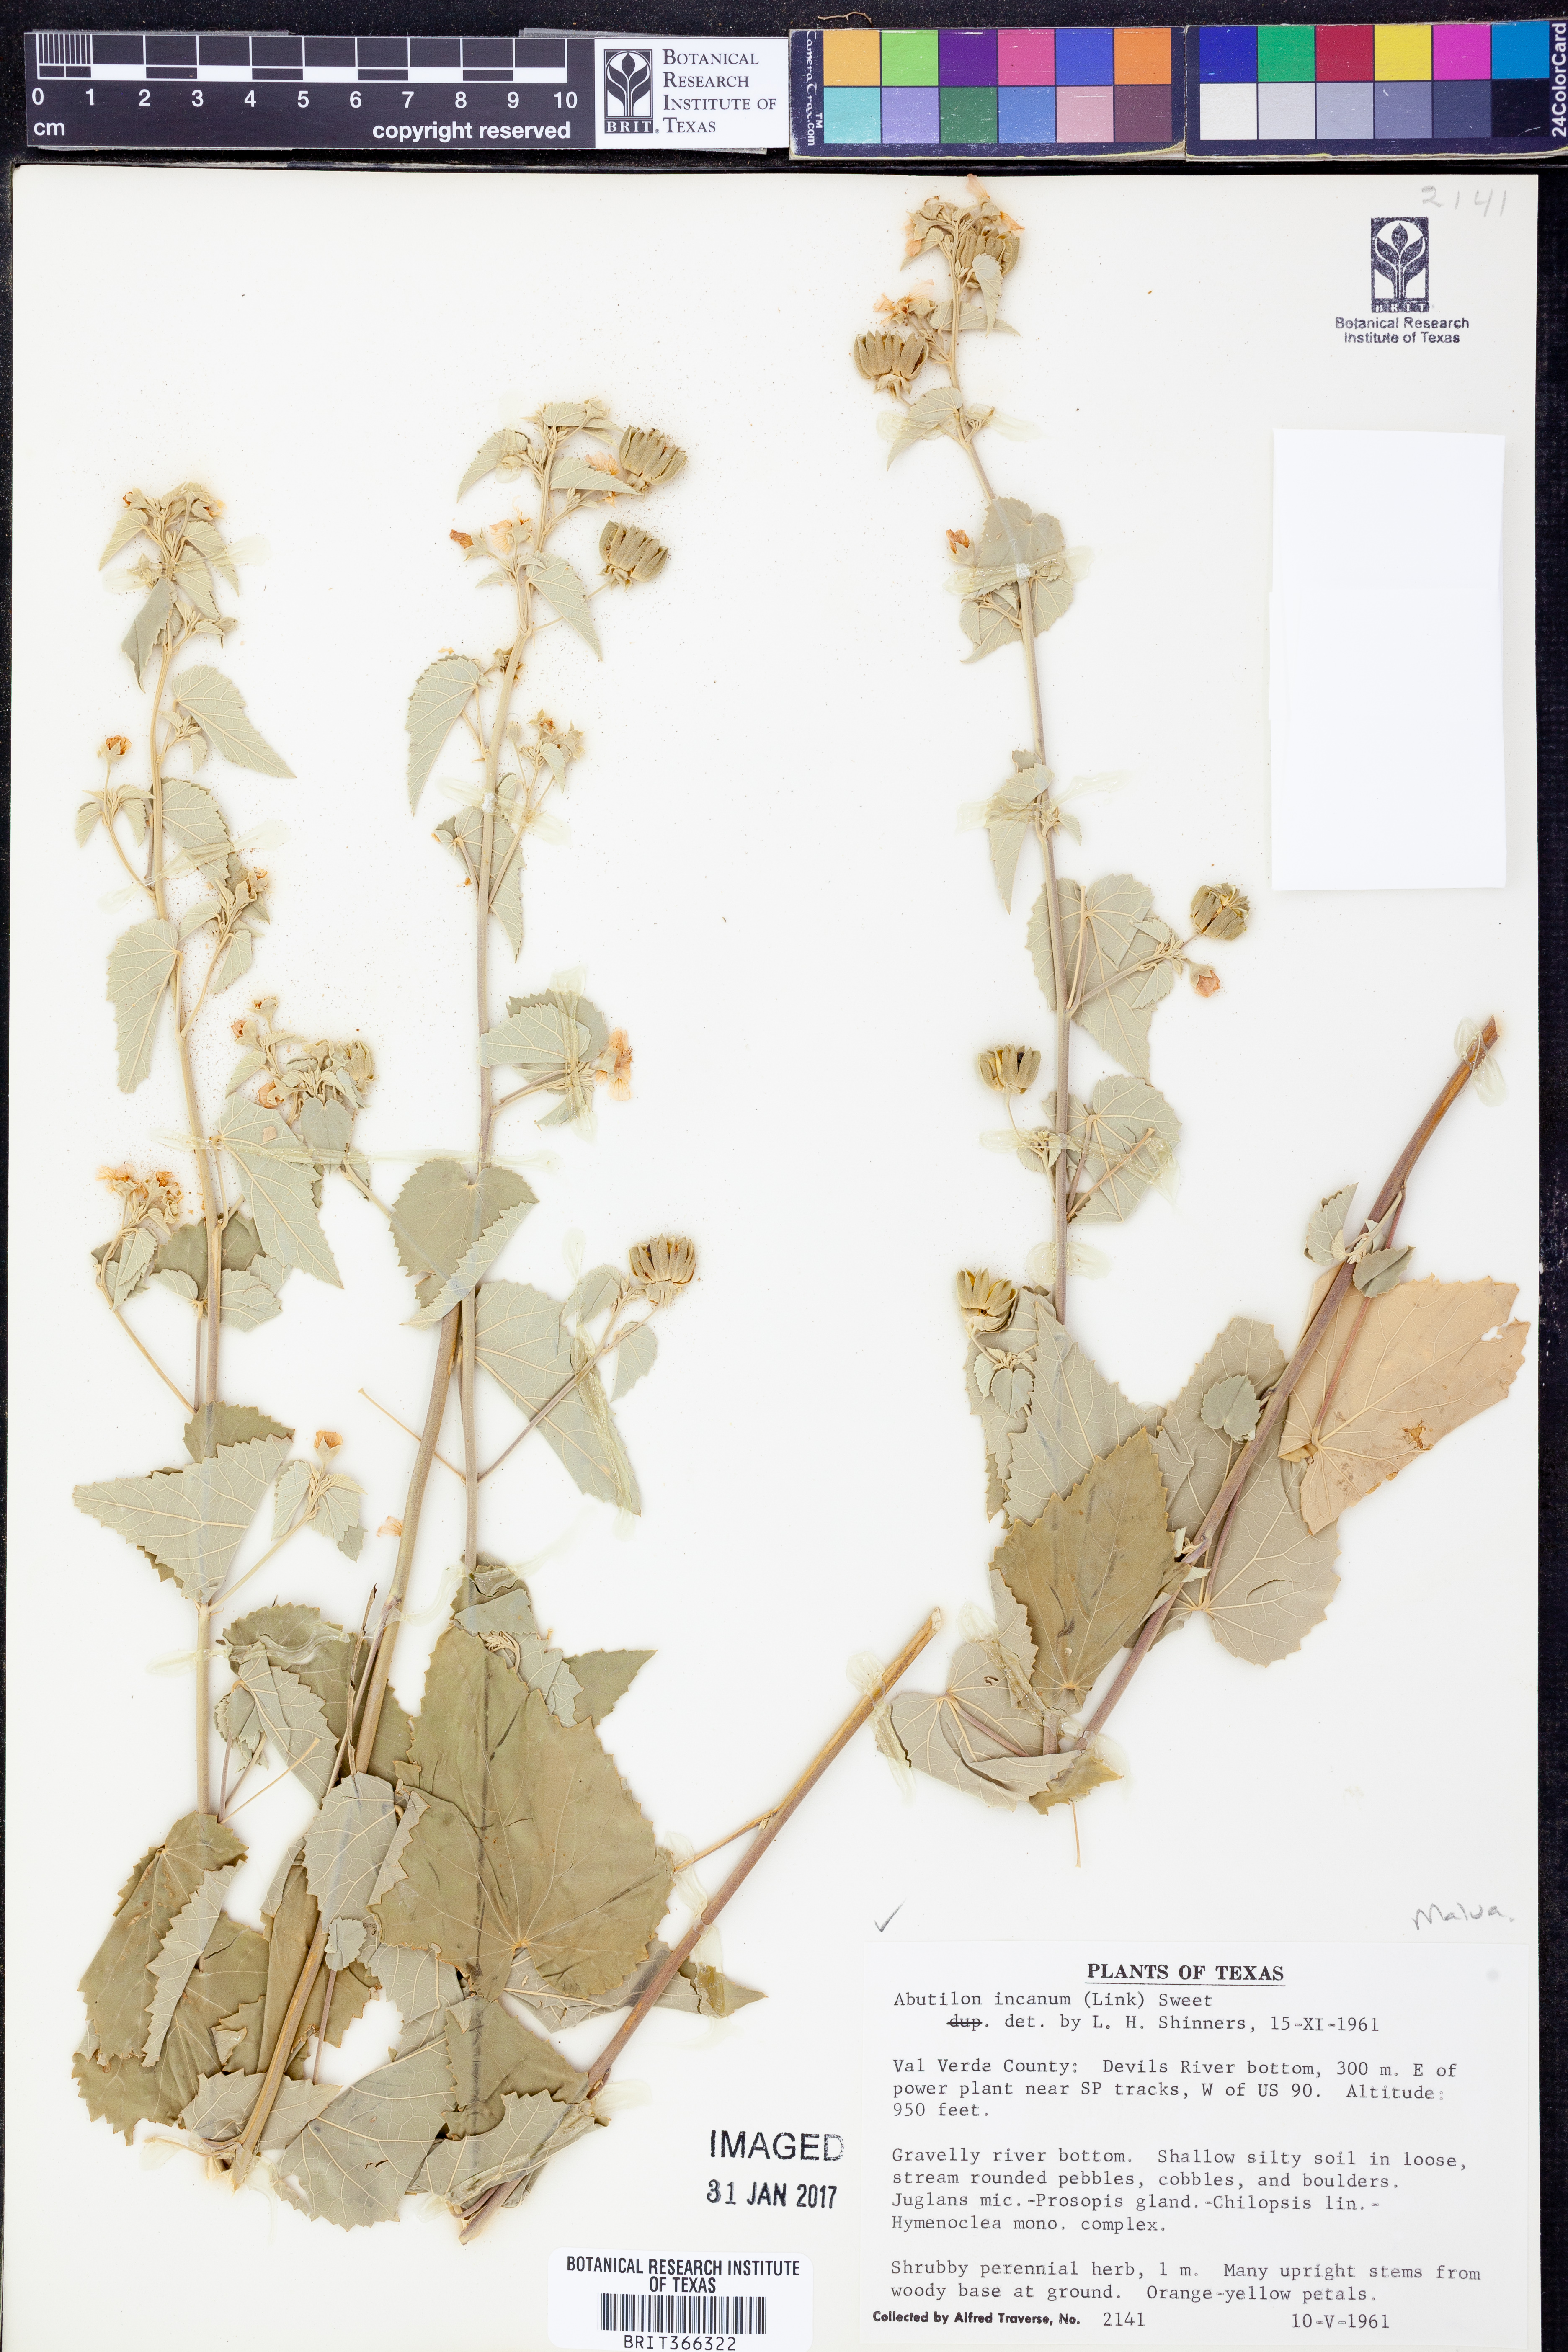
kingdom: Plantae
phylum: Tracheophyta
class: Magnoliopsida
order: Malvales
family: Malvaceae
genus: Abutilon
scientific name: Abutilon incanum
